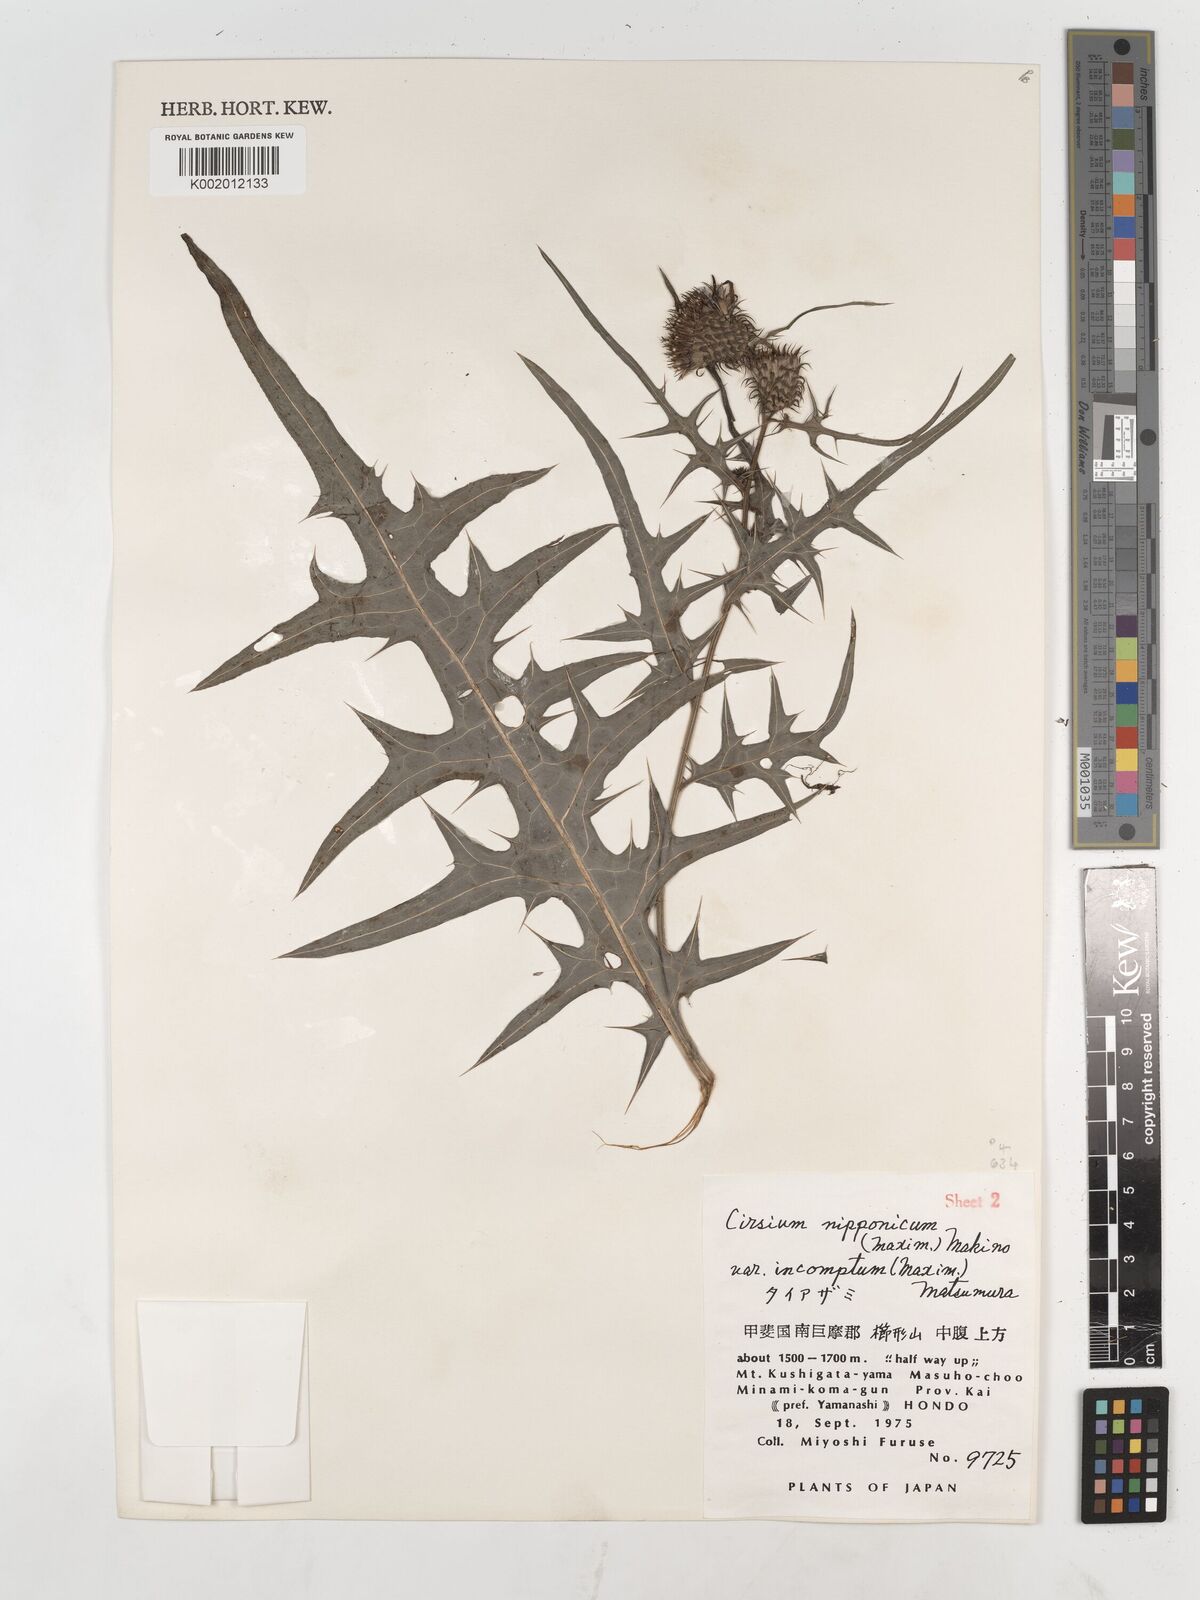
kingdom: Plantae
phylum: Tracheophyta
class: Magnoliopsida
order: Asterales
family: Asteraceae
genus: Cirsium
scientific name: Cirsium nipponicum
